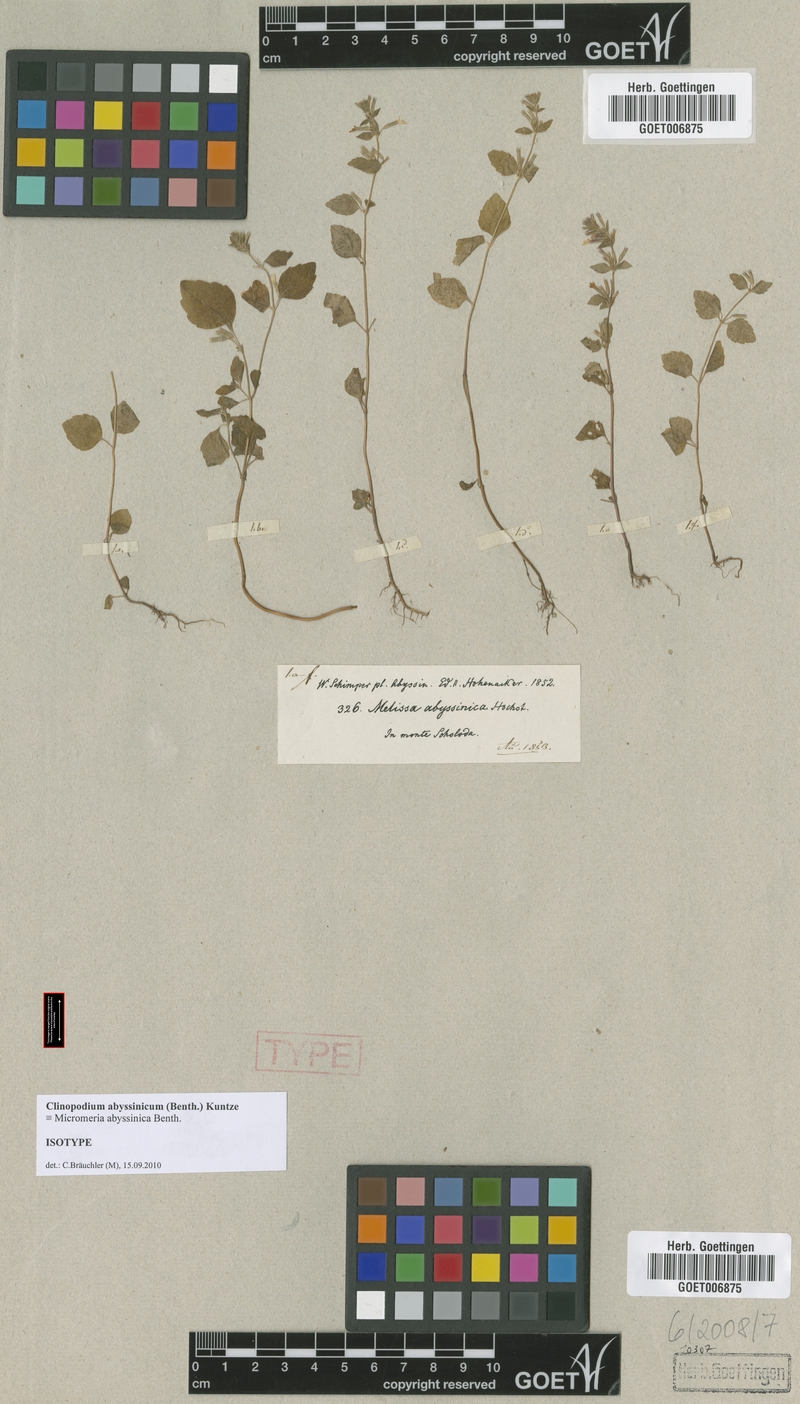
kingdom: Plantae
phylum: Tracheophyta
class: Magnoliopsida
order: Lamiales
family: Lamiaceae
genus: Clinopodium
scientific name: Clinopodium abyssinicum
